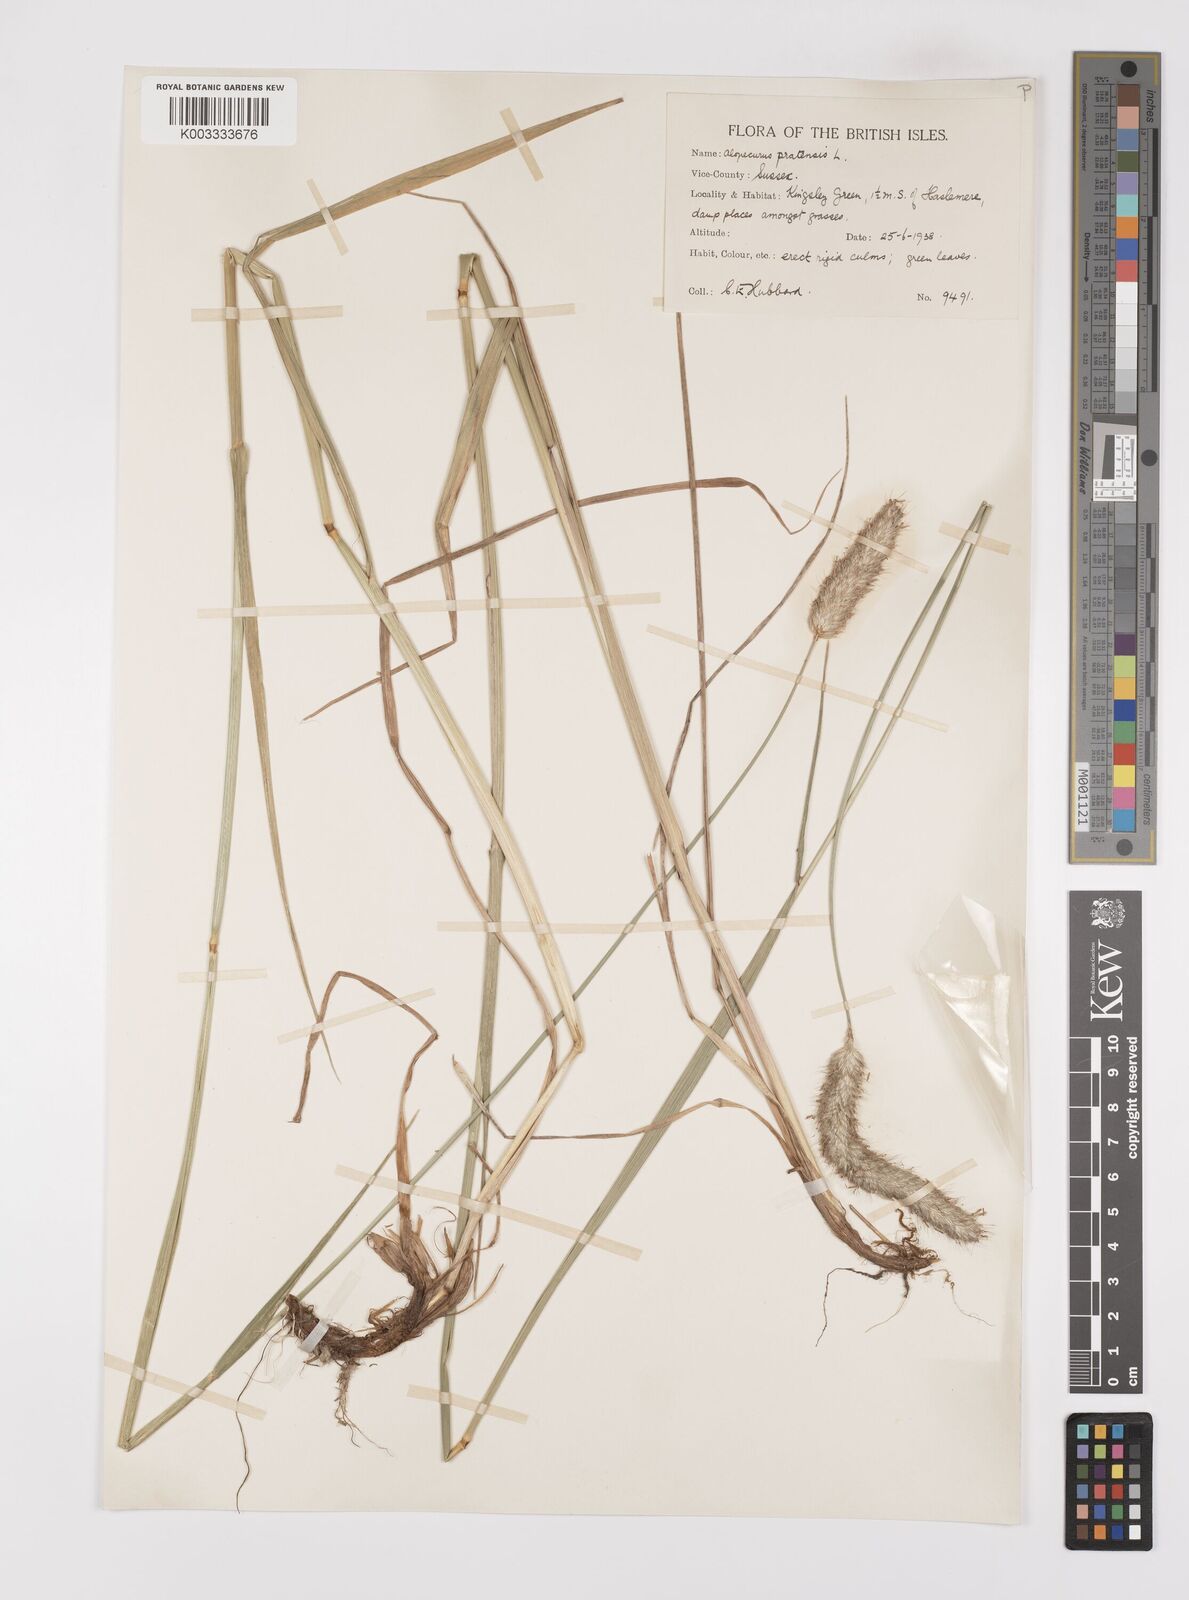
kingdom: Plantae
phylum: Tracheophyta
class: Liliopsida
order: Poales
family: Poaceae
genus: Alopecurus
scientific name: Alopecurus pratensis
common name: Meadow foxtail
